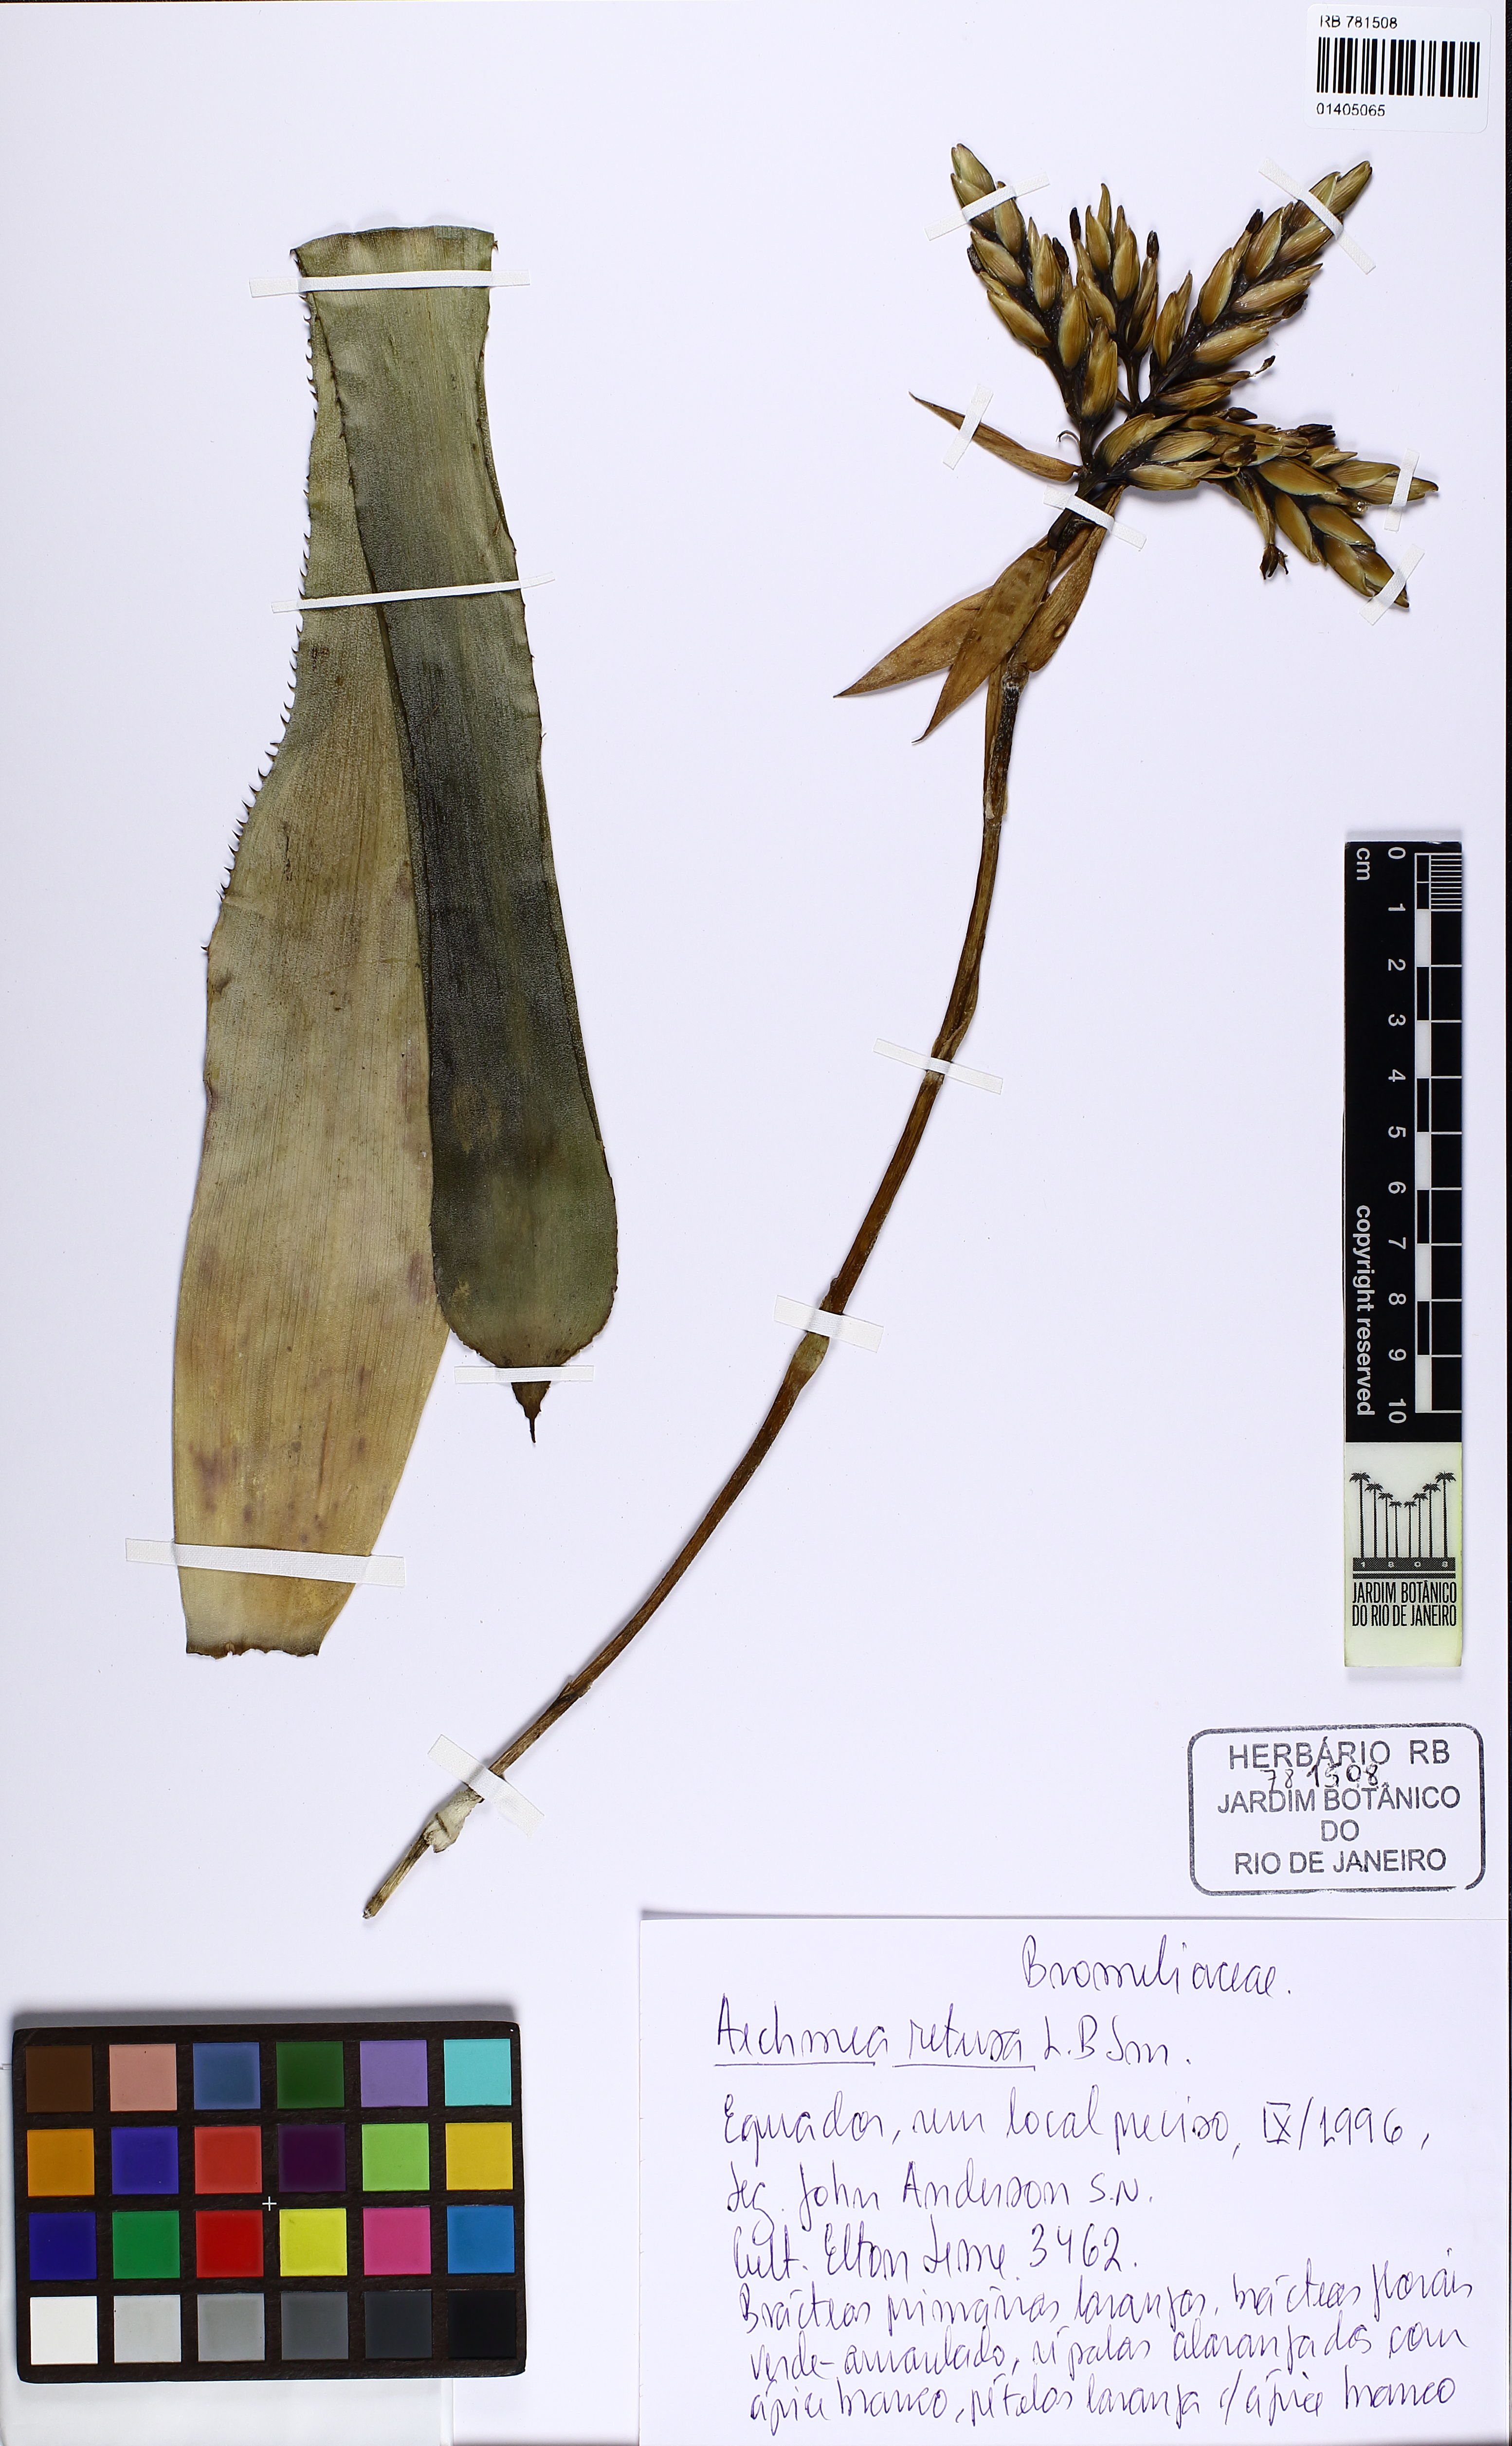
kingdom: Plantae
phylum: Tracheophyta
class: Liliopsida
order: Poales
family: Bromeliaceae
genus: Aechmea
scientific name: Aechmea retusa
